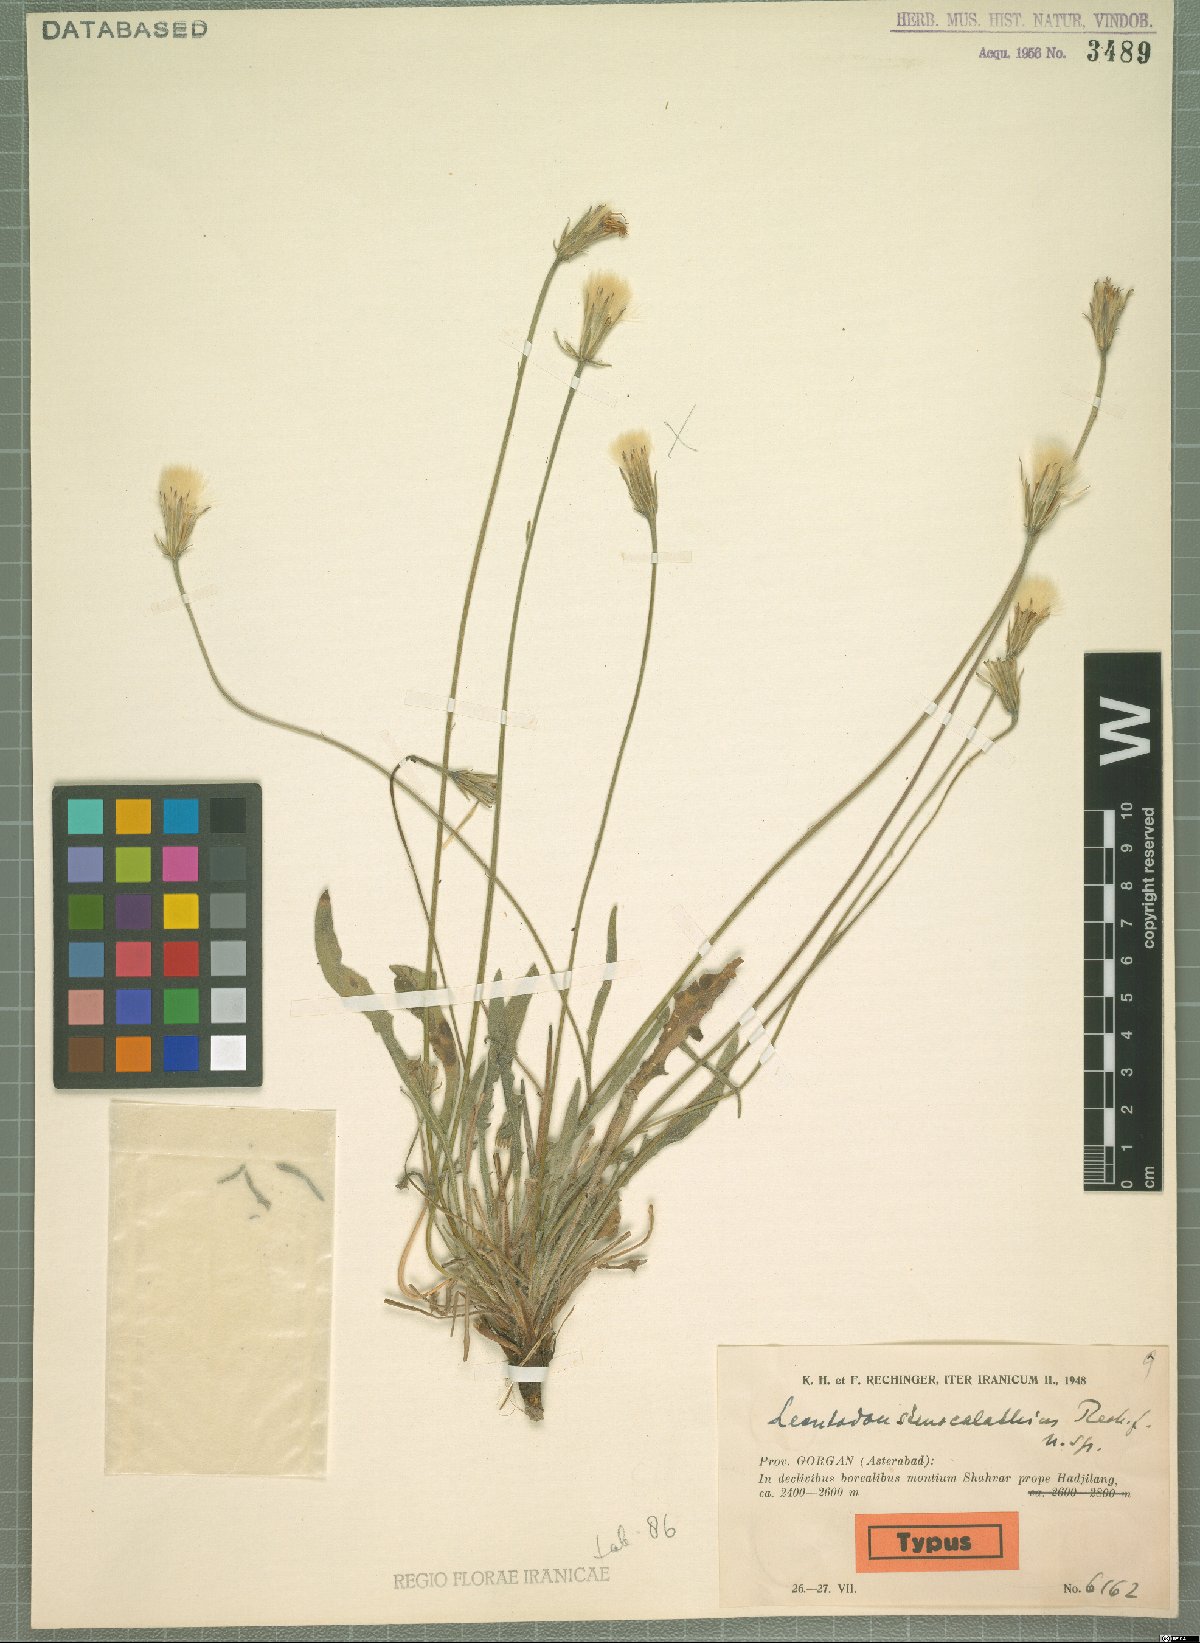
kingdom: Plantae
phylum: Tracheophyta
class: Magnoliopsida
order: Asterales
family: Asteraceae
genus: Leontodon
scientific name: Leontodon stenocalathius
